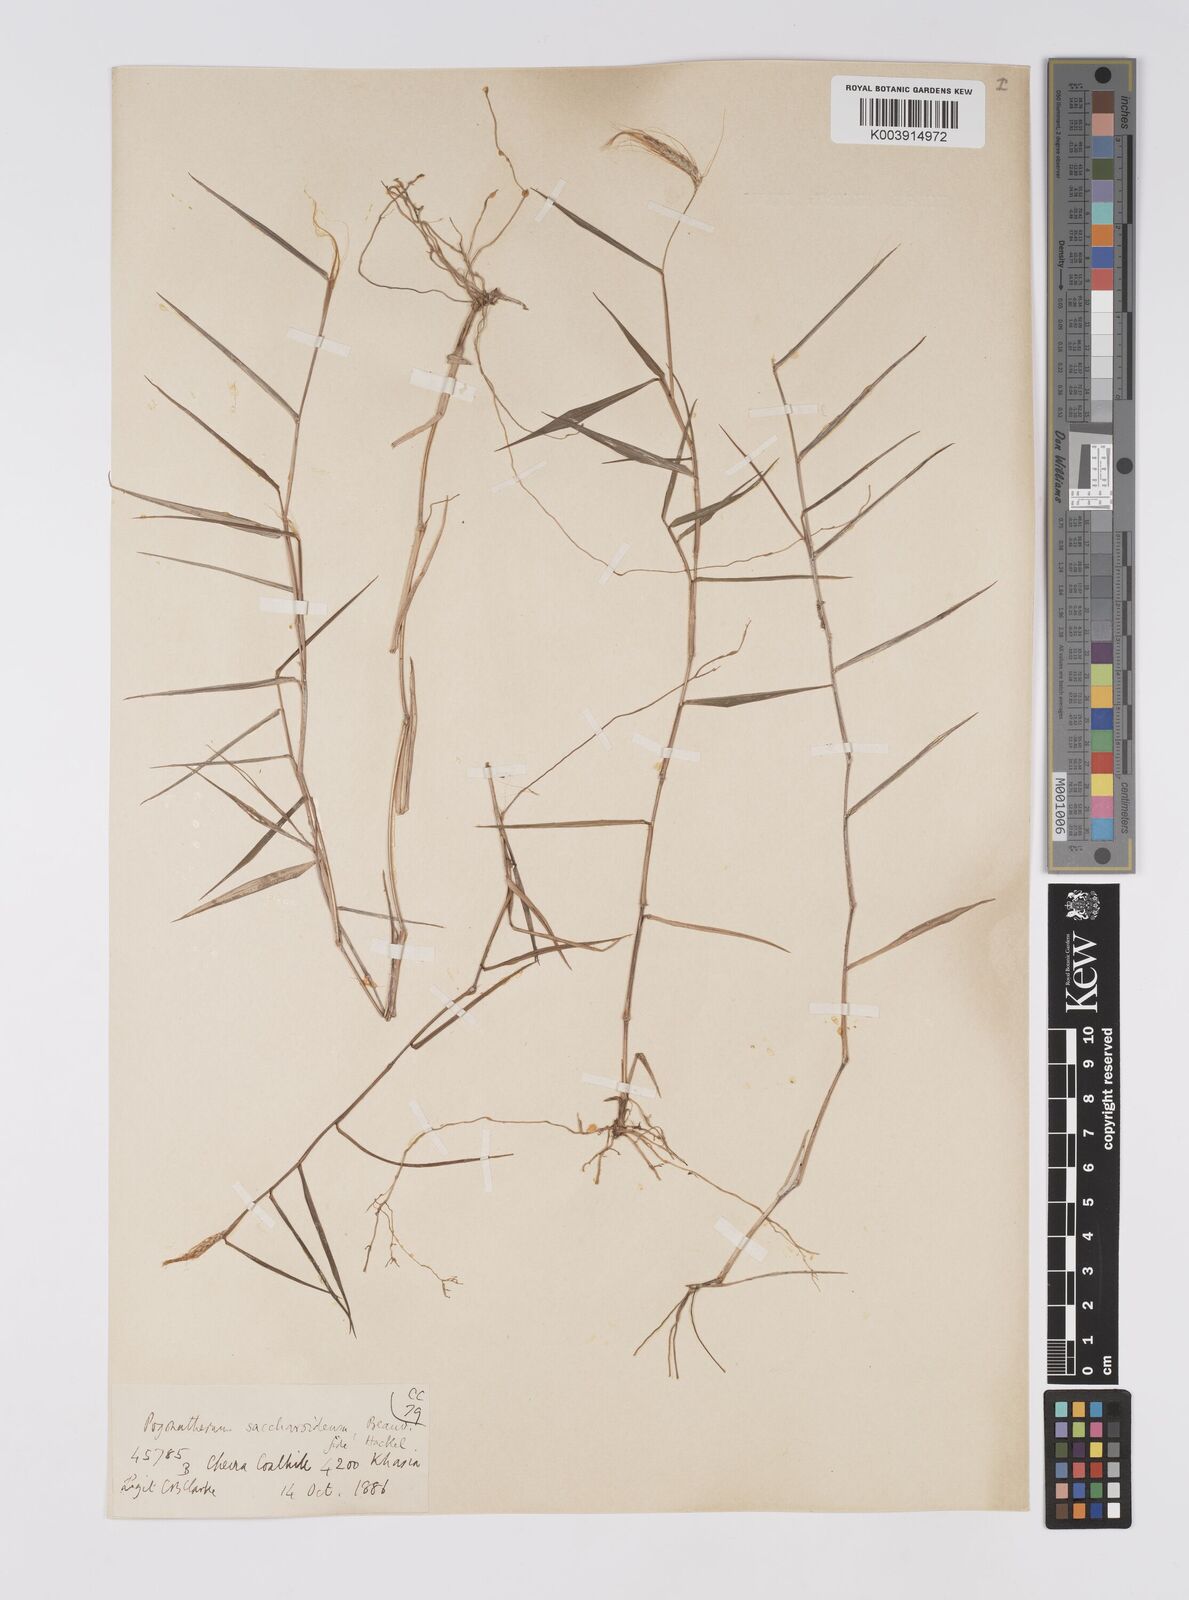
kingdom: Plantae
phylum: Tracheophyta
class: Liliopsida
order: Poales
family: Poaceae
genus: Pogonatherum
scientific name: Pogonatherum paniceum
